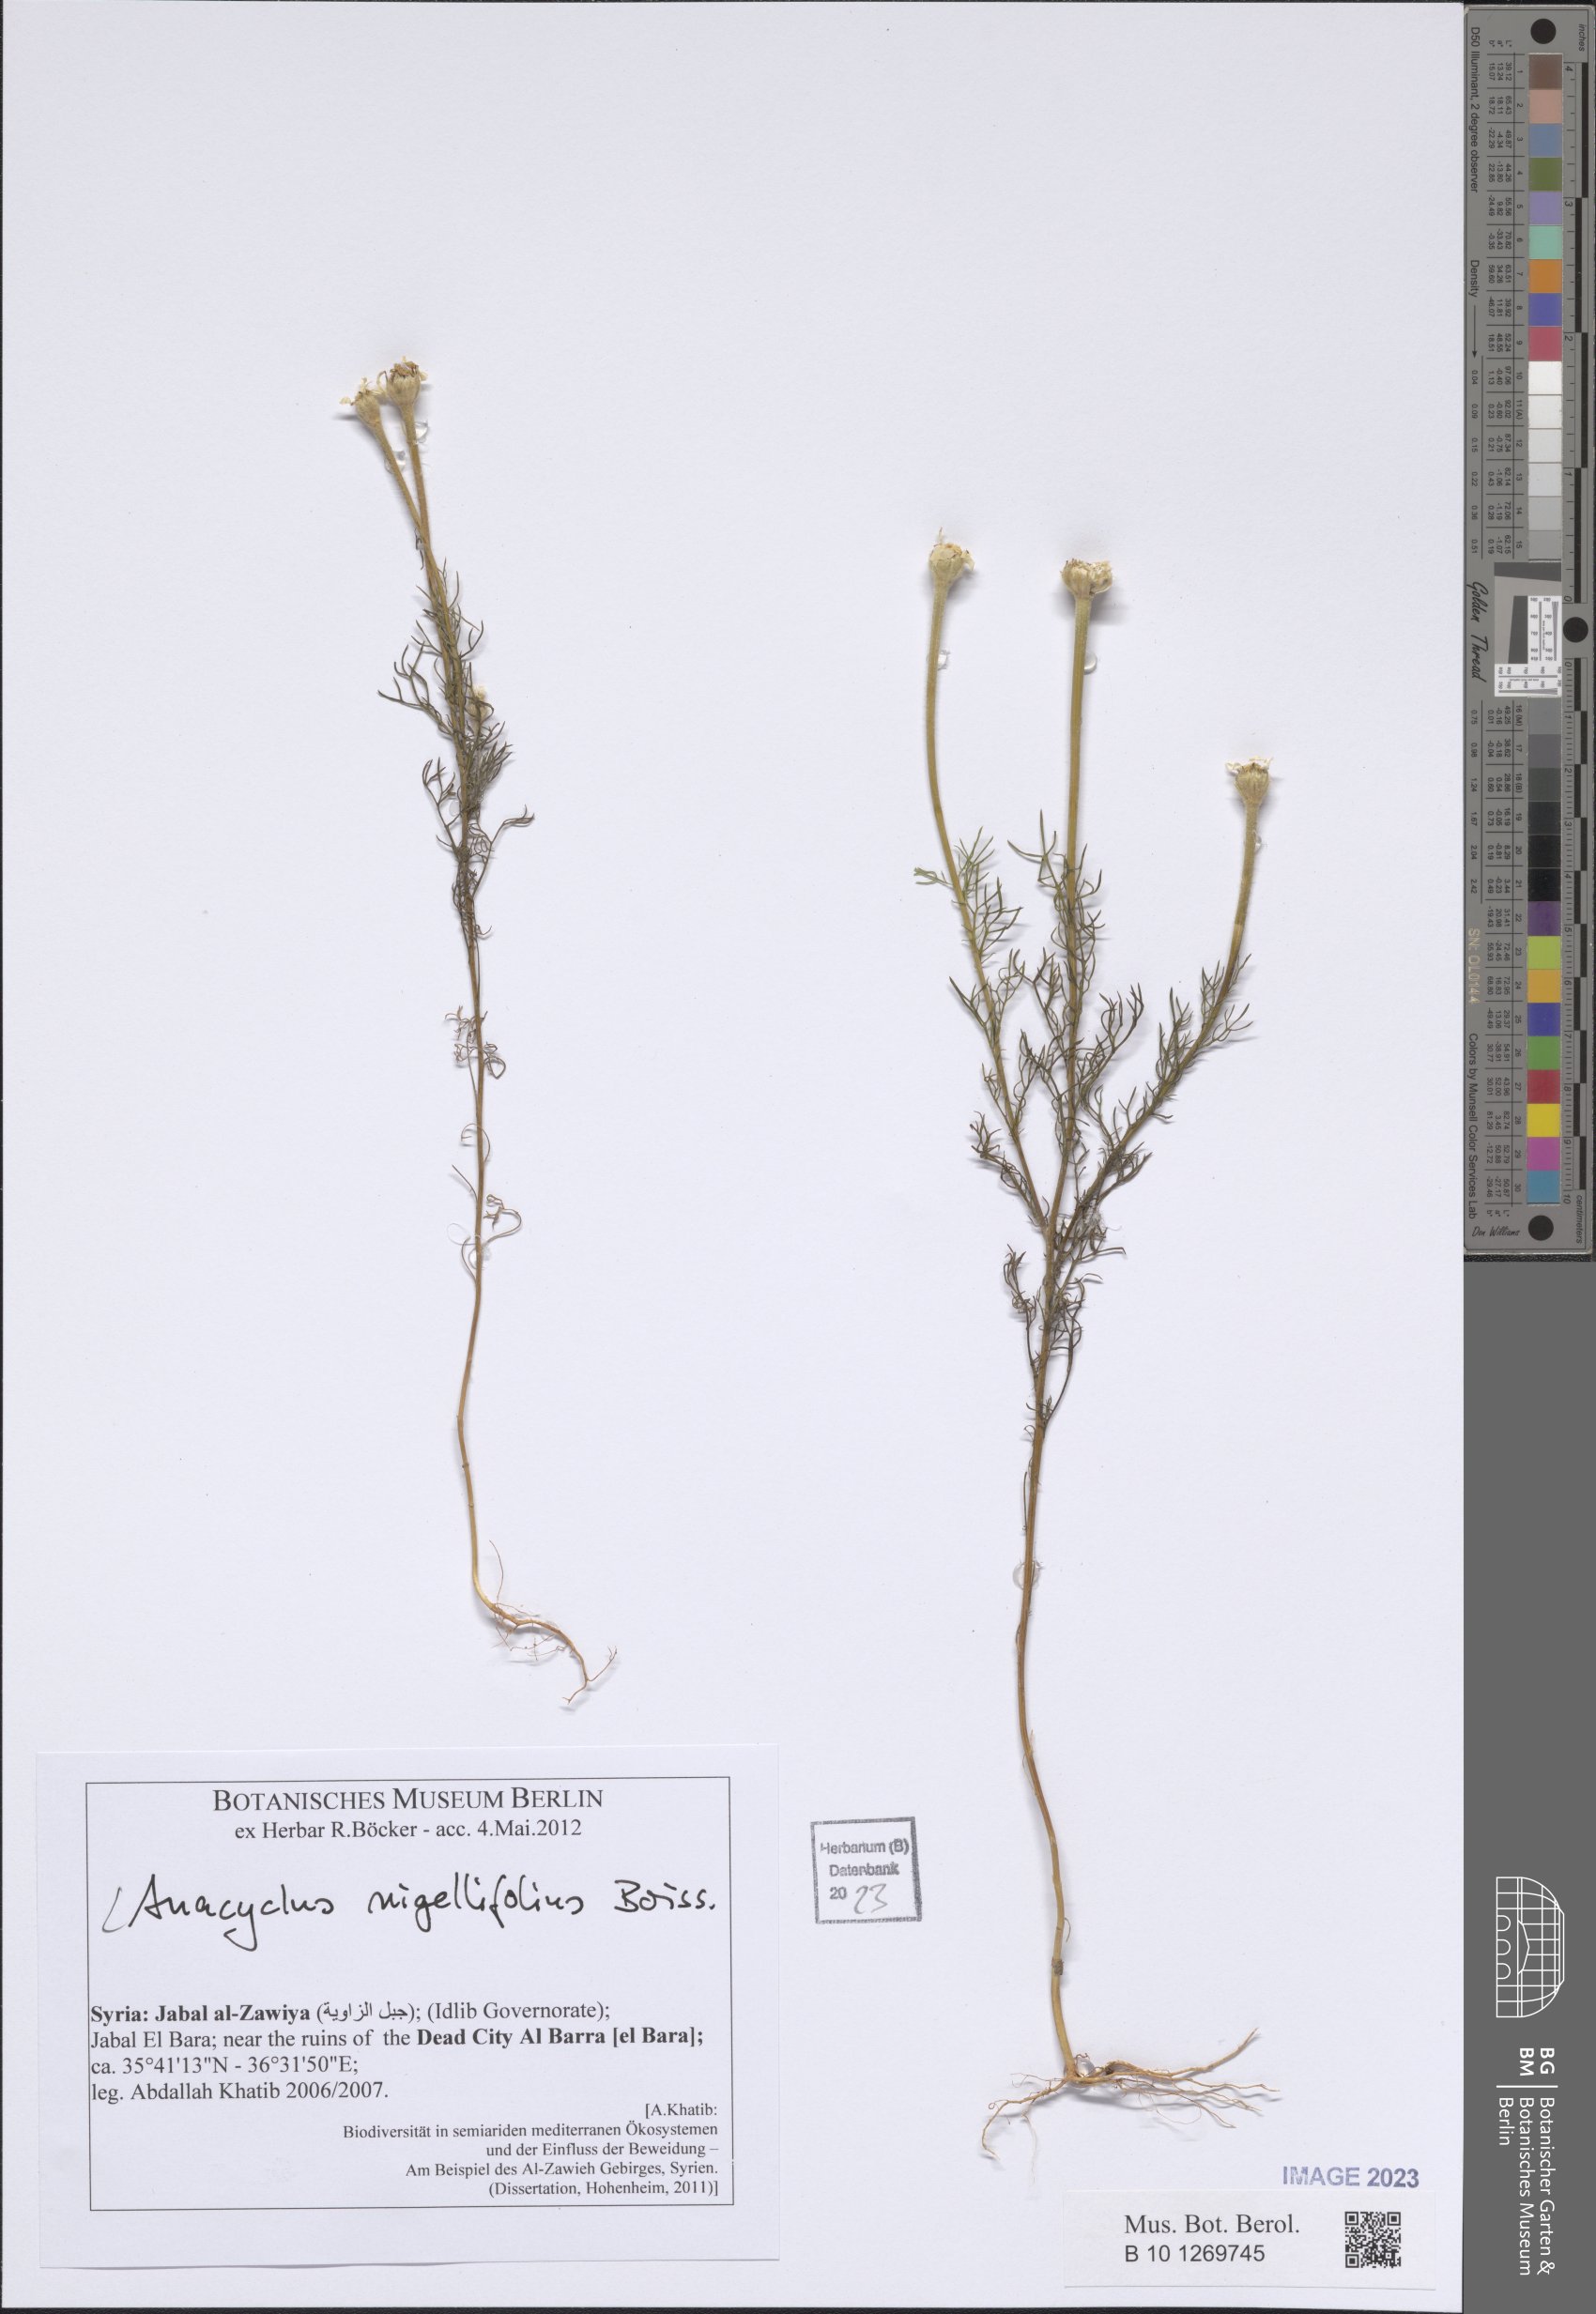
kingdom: Plantae
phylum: Tracheophyta
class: Magnoliopsida
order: Asterales
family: Asteraceae
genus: Cota
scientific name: Cota nigellifolia
